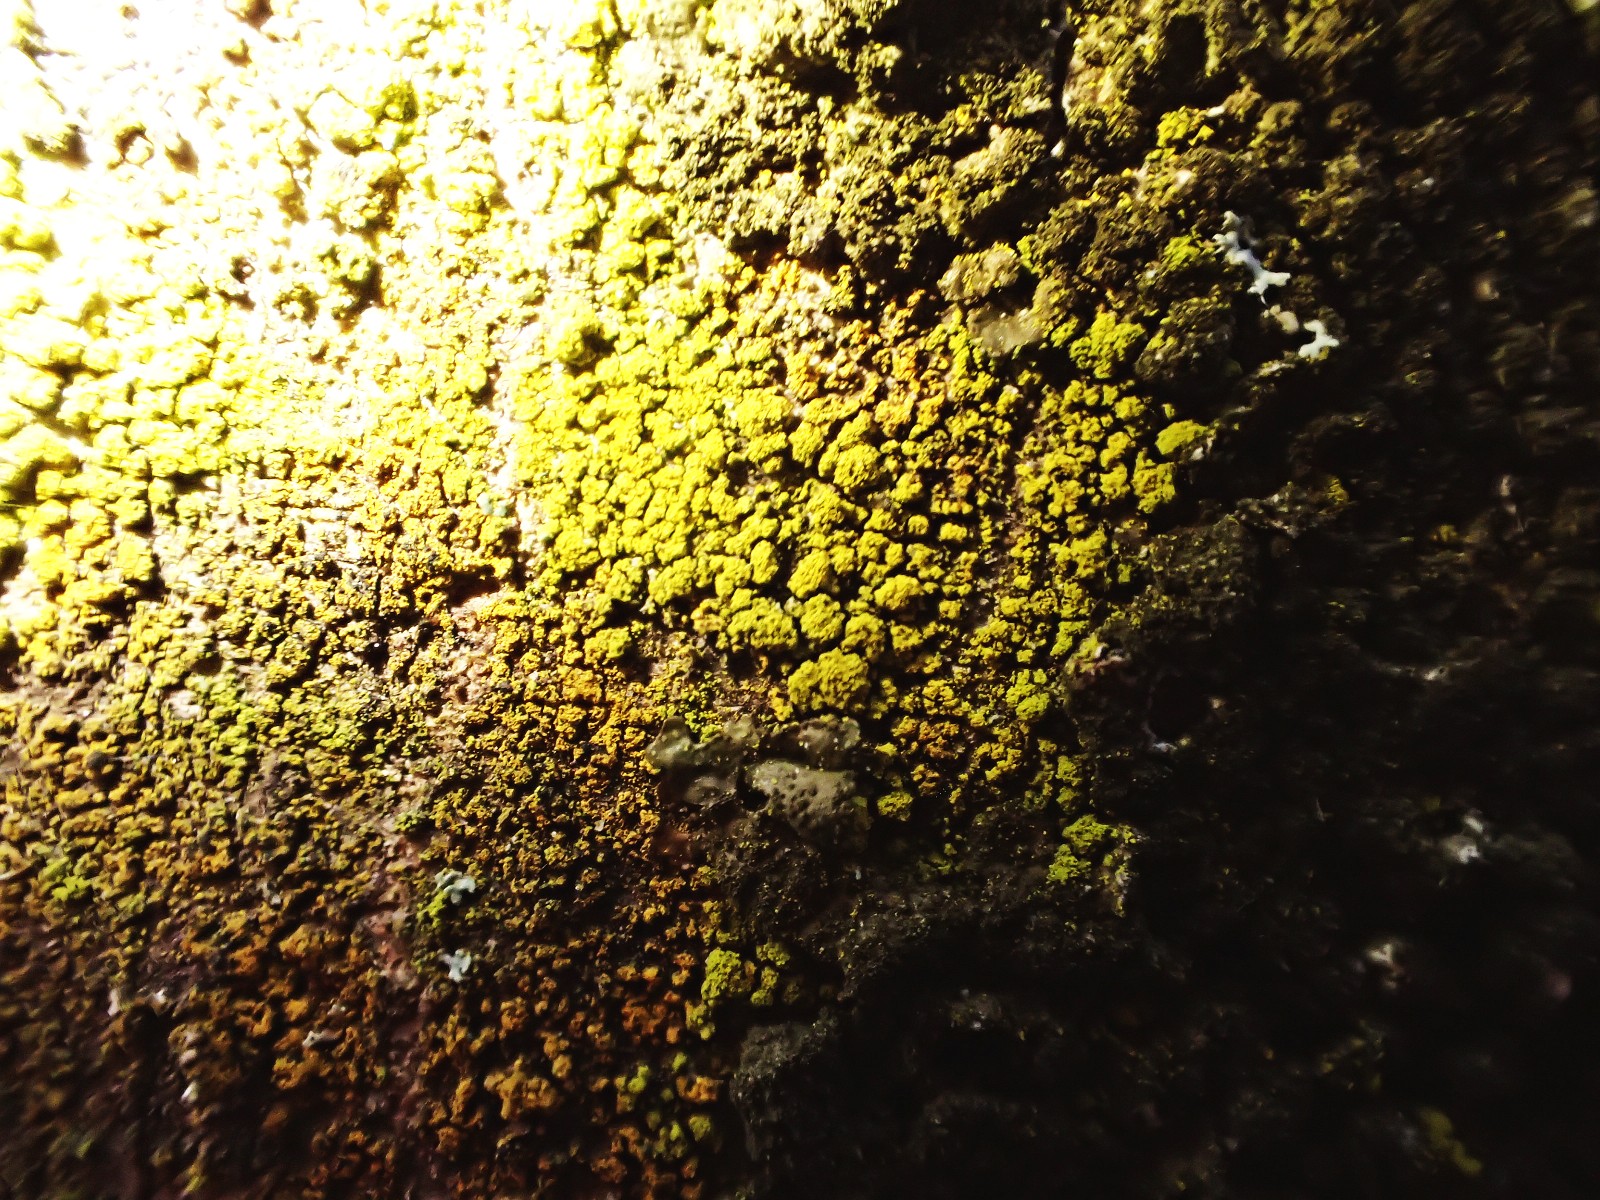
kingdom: Fungi
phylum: Ascomycota
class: Candelariomycetes
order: Candelariales
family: Candelariaceae
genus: Candelariella
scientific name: Candelariella
